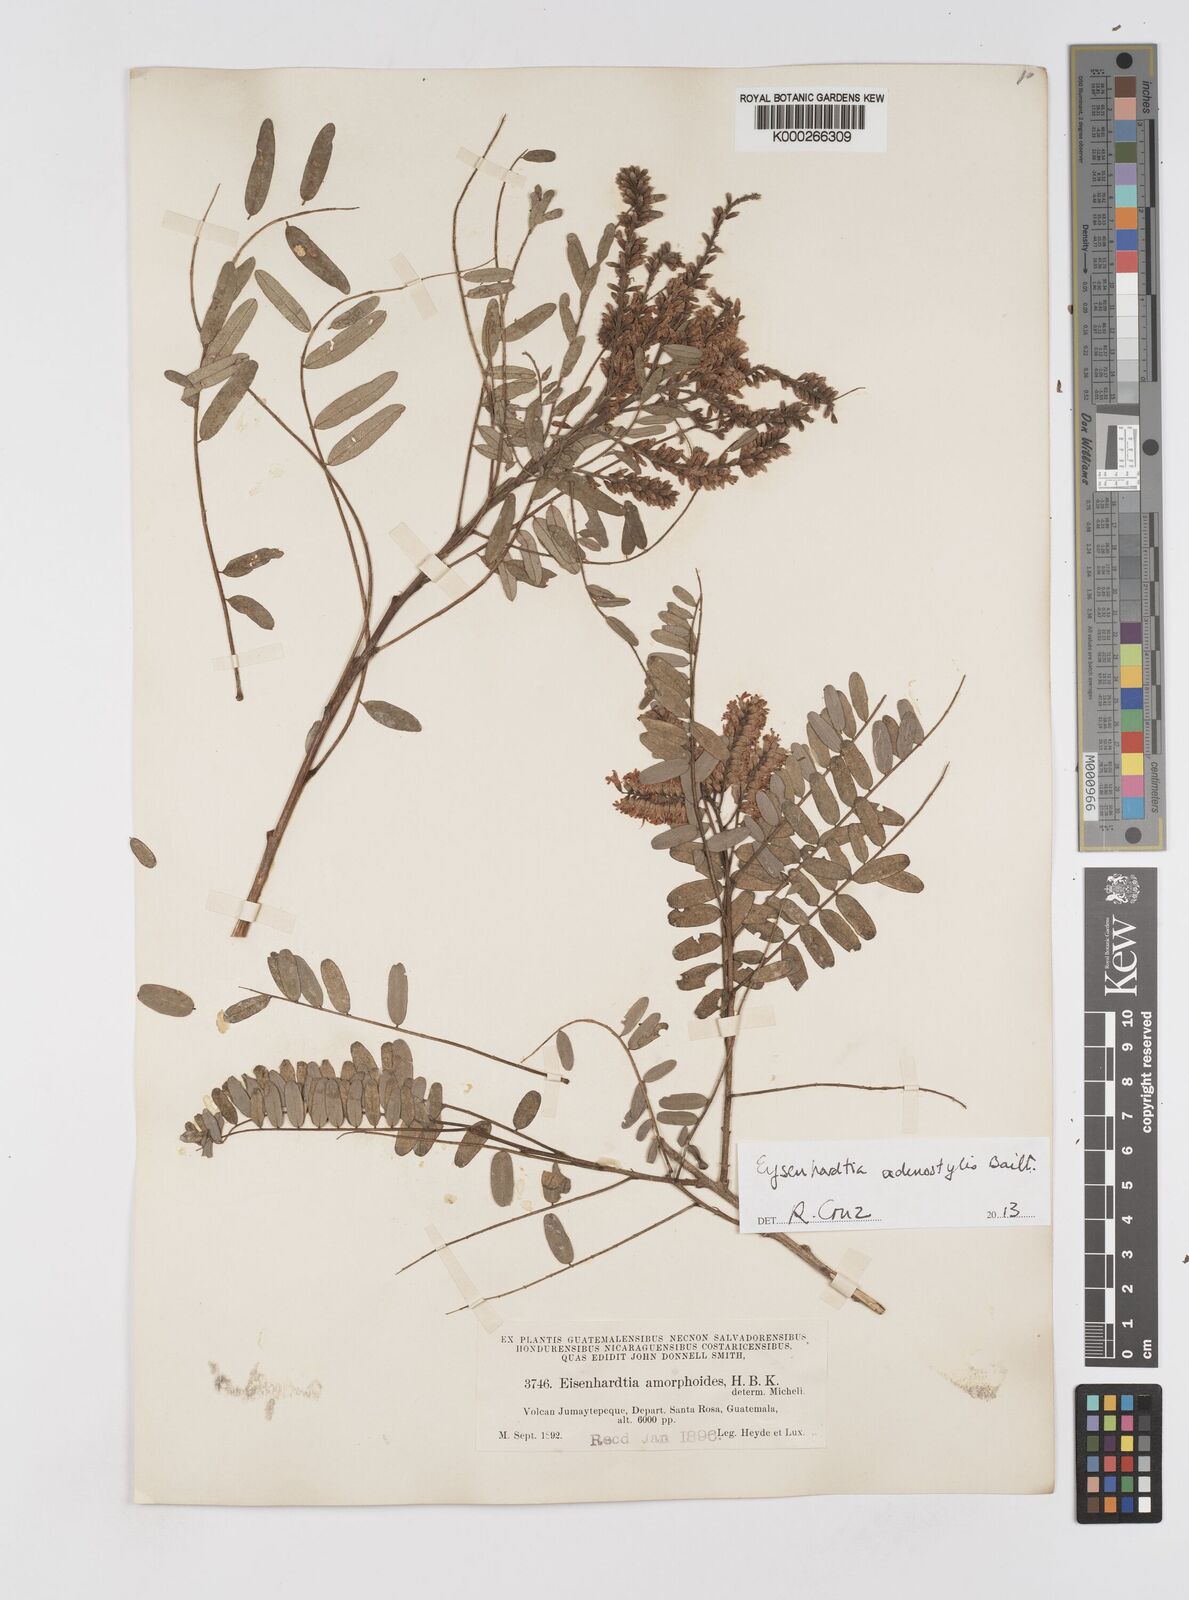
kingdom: Plantae
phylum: Tracheophyta
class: Magnoliopsida
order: Fabales
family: Fabaceae
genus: Eysenhardtia
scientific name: Eysenhardtia adenostylis
